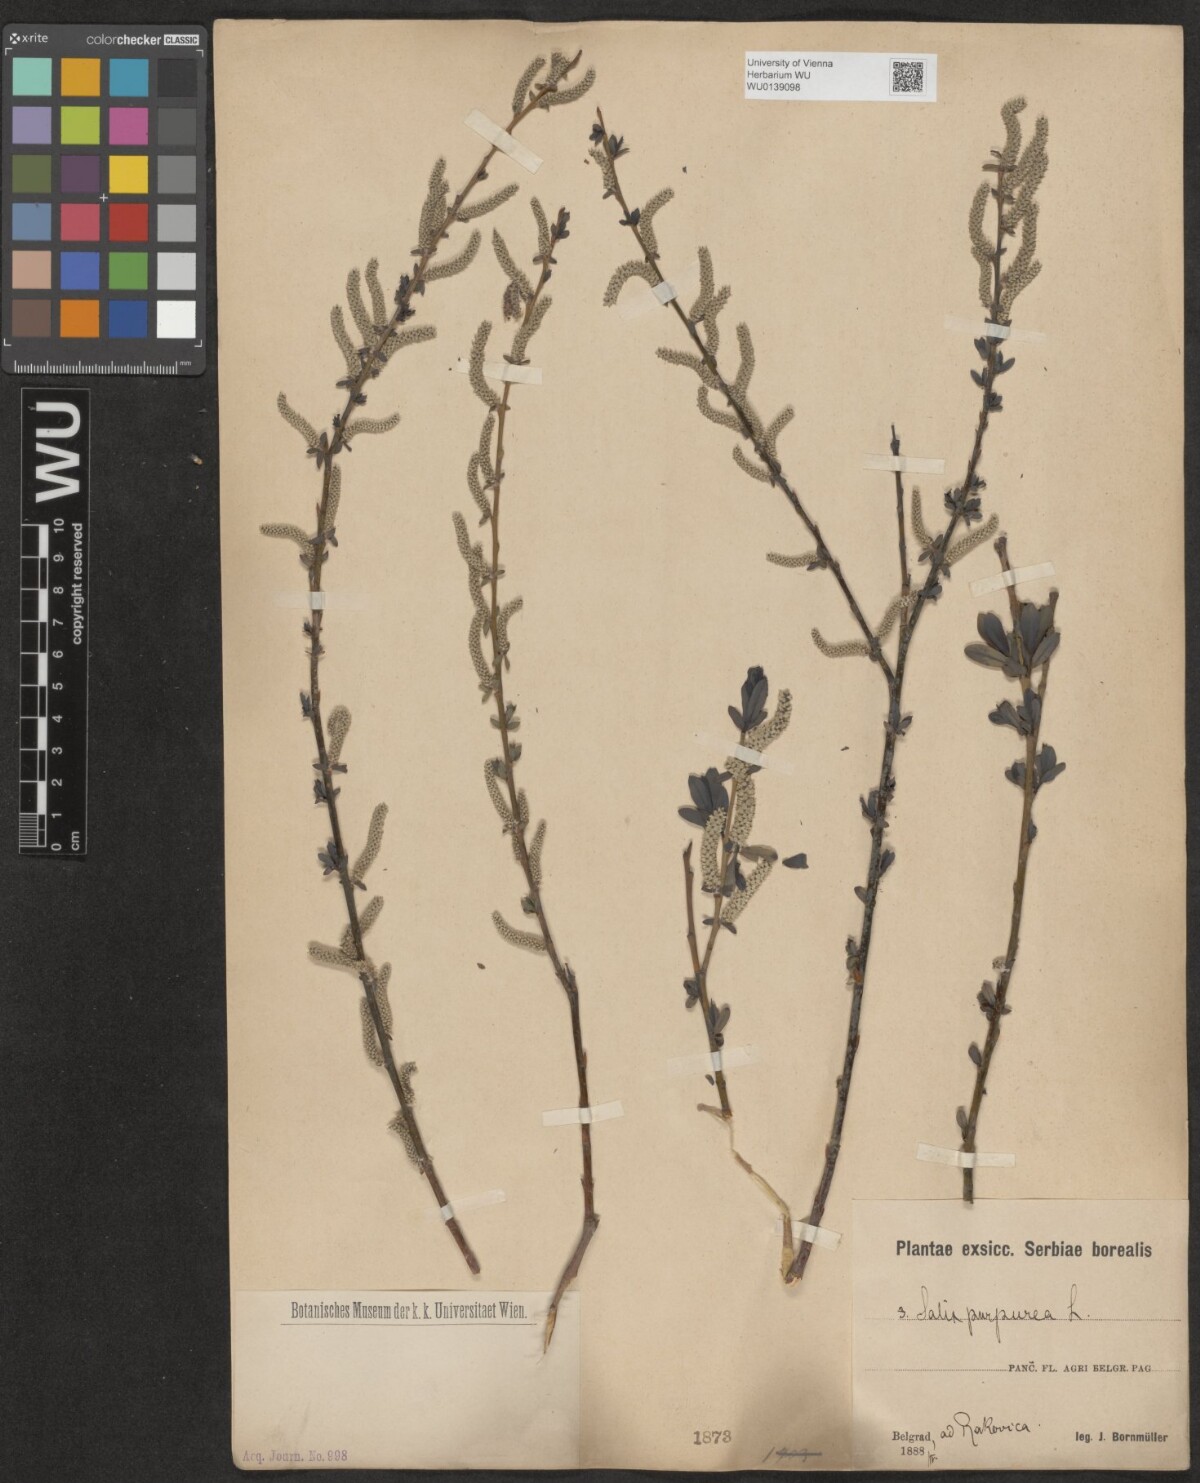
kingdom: Plantae
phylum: Tracheophyta
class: Magnoliopsida
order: Malpighiales
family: Salicaceae
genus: Salix
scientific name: Salix purpurea
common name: Purple willow
